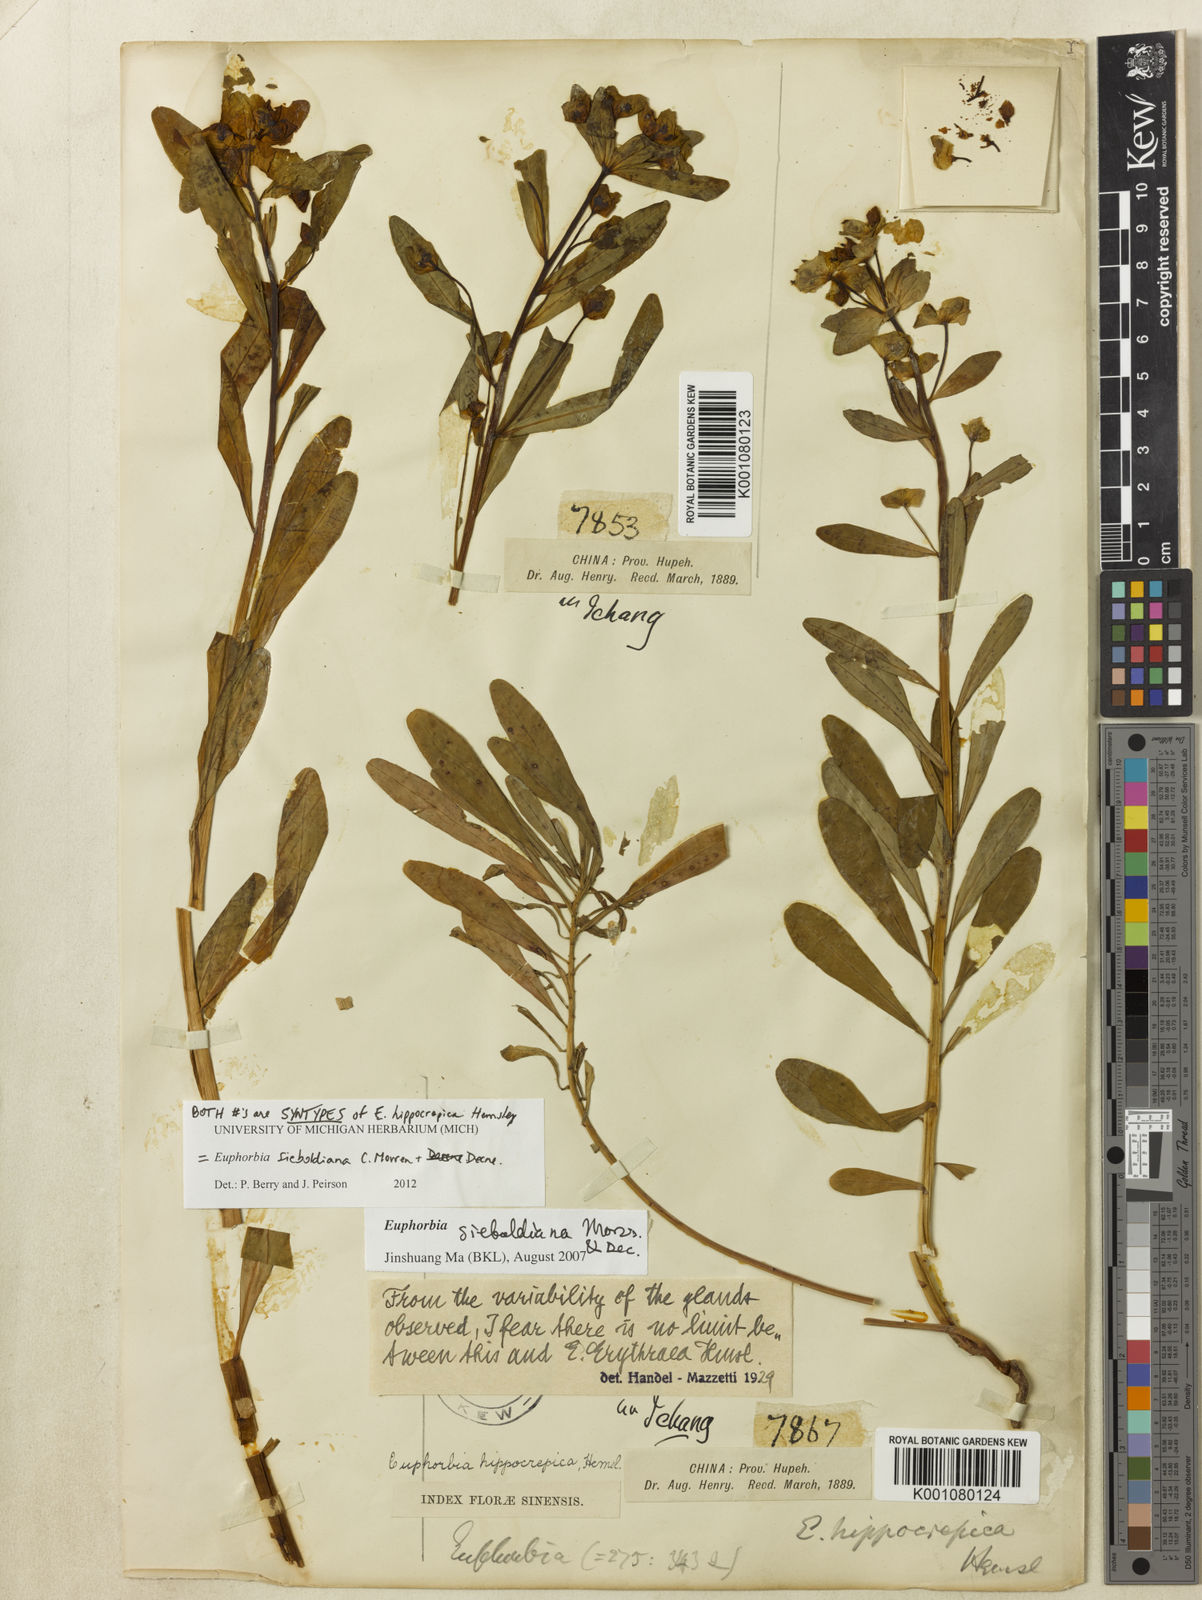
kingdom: Plantae
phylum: Tracheophyta
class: Magnoliopsida
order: Malpighiales
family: Euphorbiaceae
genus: Euphorbia
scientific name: Euphorbia sieboldiana
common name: Siebold's spurge
